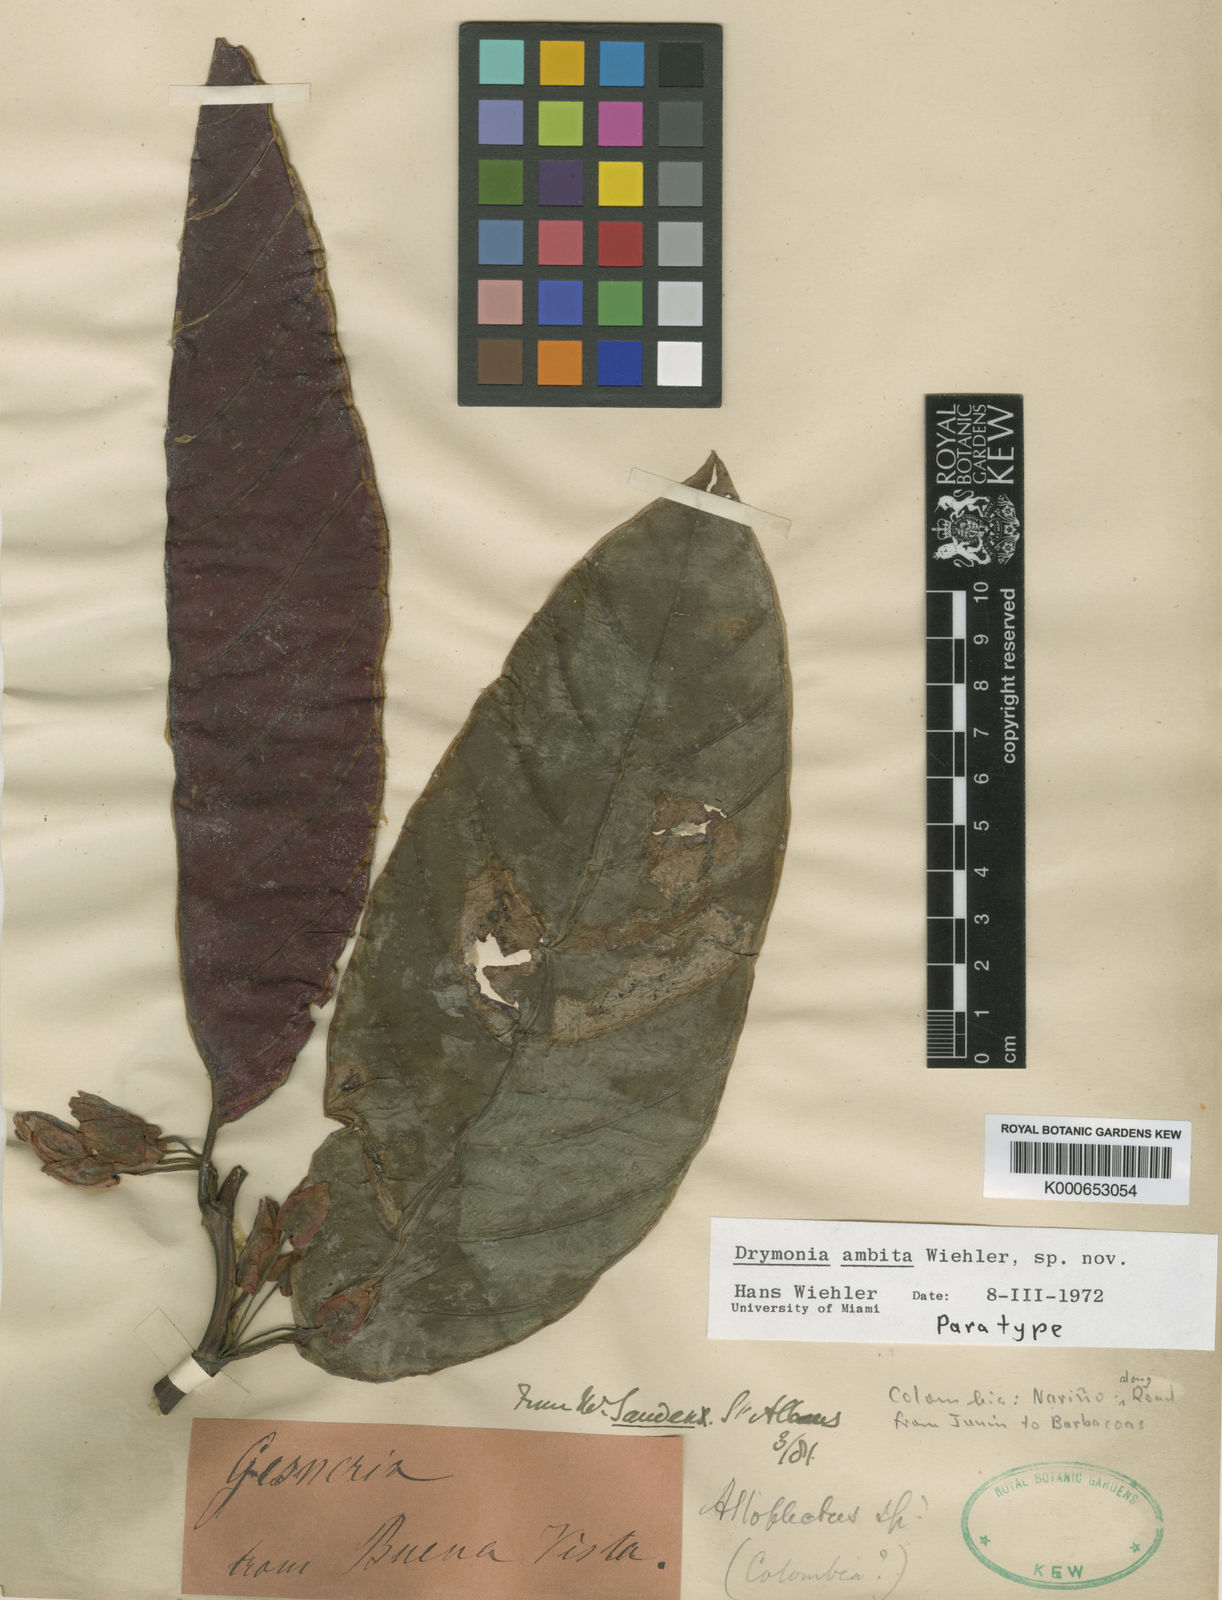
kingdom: Plantae
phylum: Tracheophyta
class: Magnoliopsida
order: Lamiales
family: Gesneriaceae
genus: Drymonia
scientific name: Drymonia
